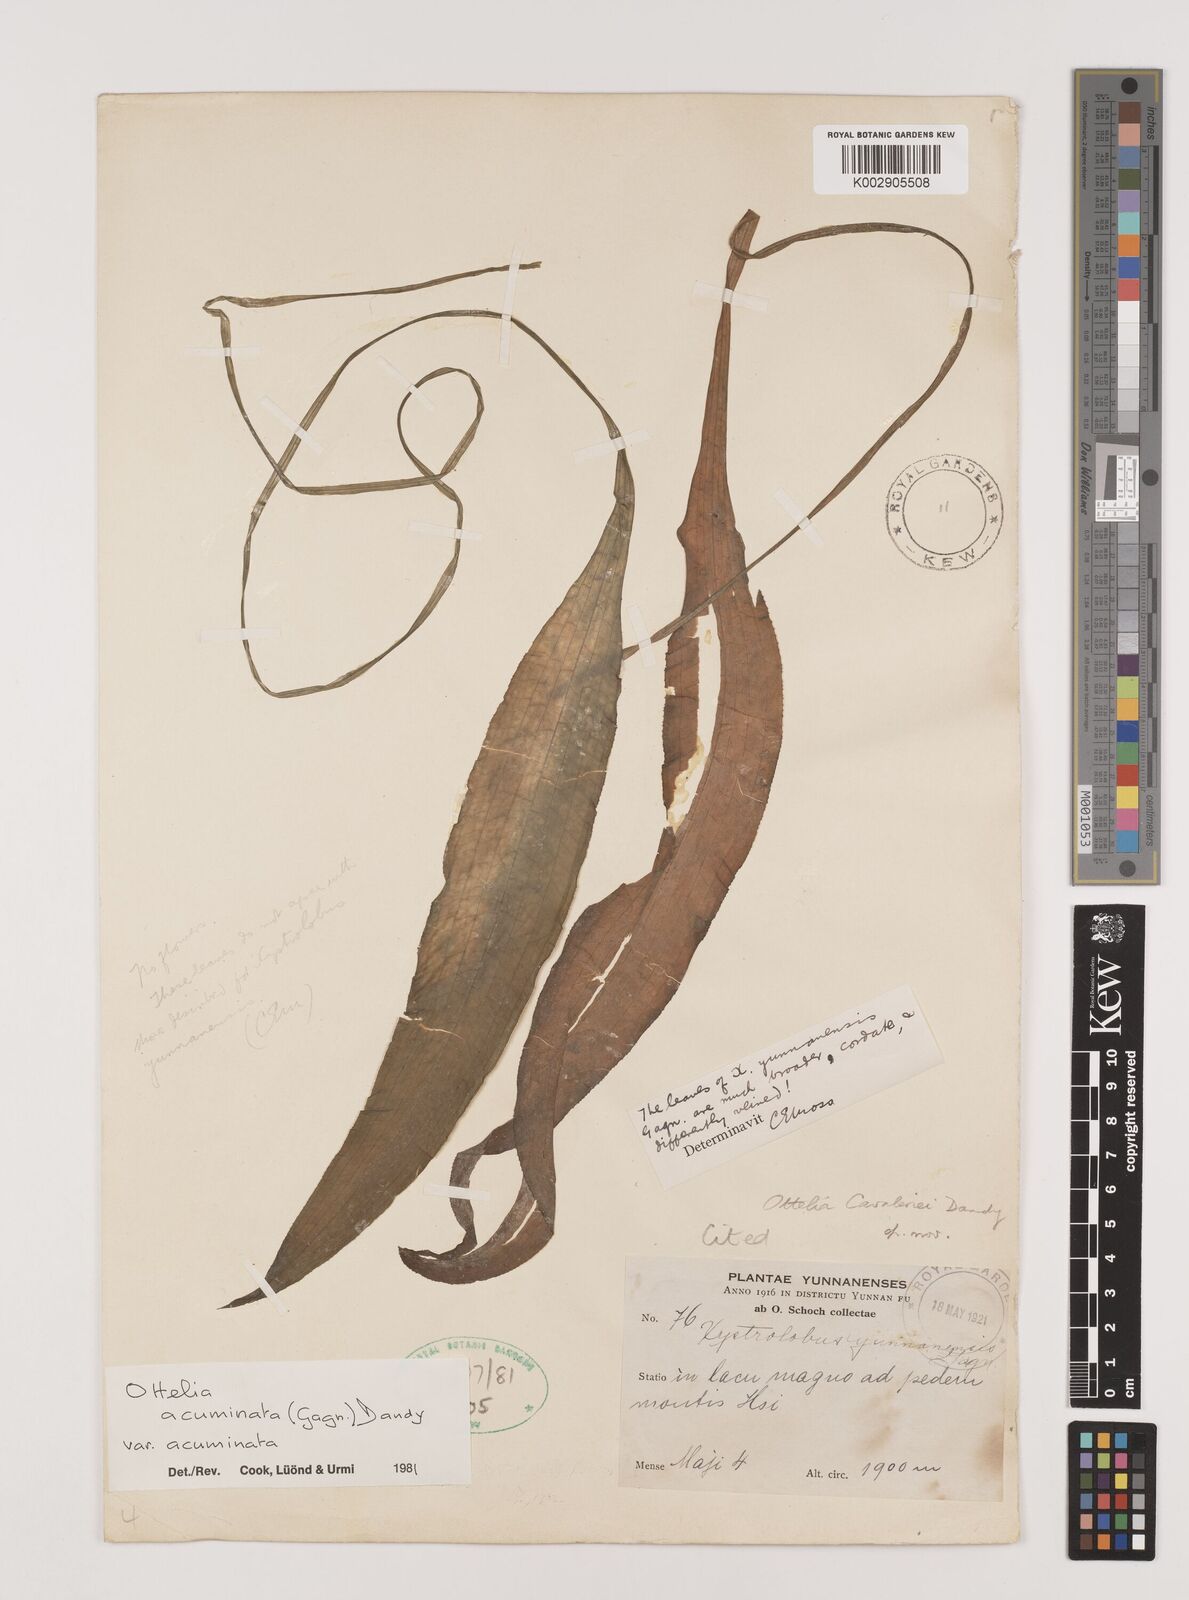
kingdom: Plantae
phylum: Tracheophyta
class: Liliopsida
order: Alismatales
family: Hydrocharitaceae
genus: Ottelia
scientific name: Ottelia acuminata
